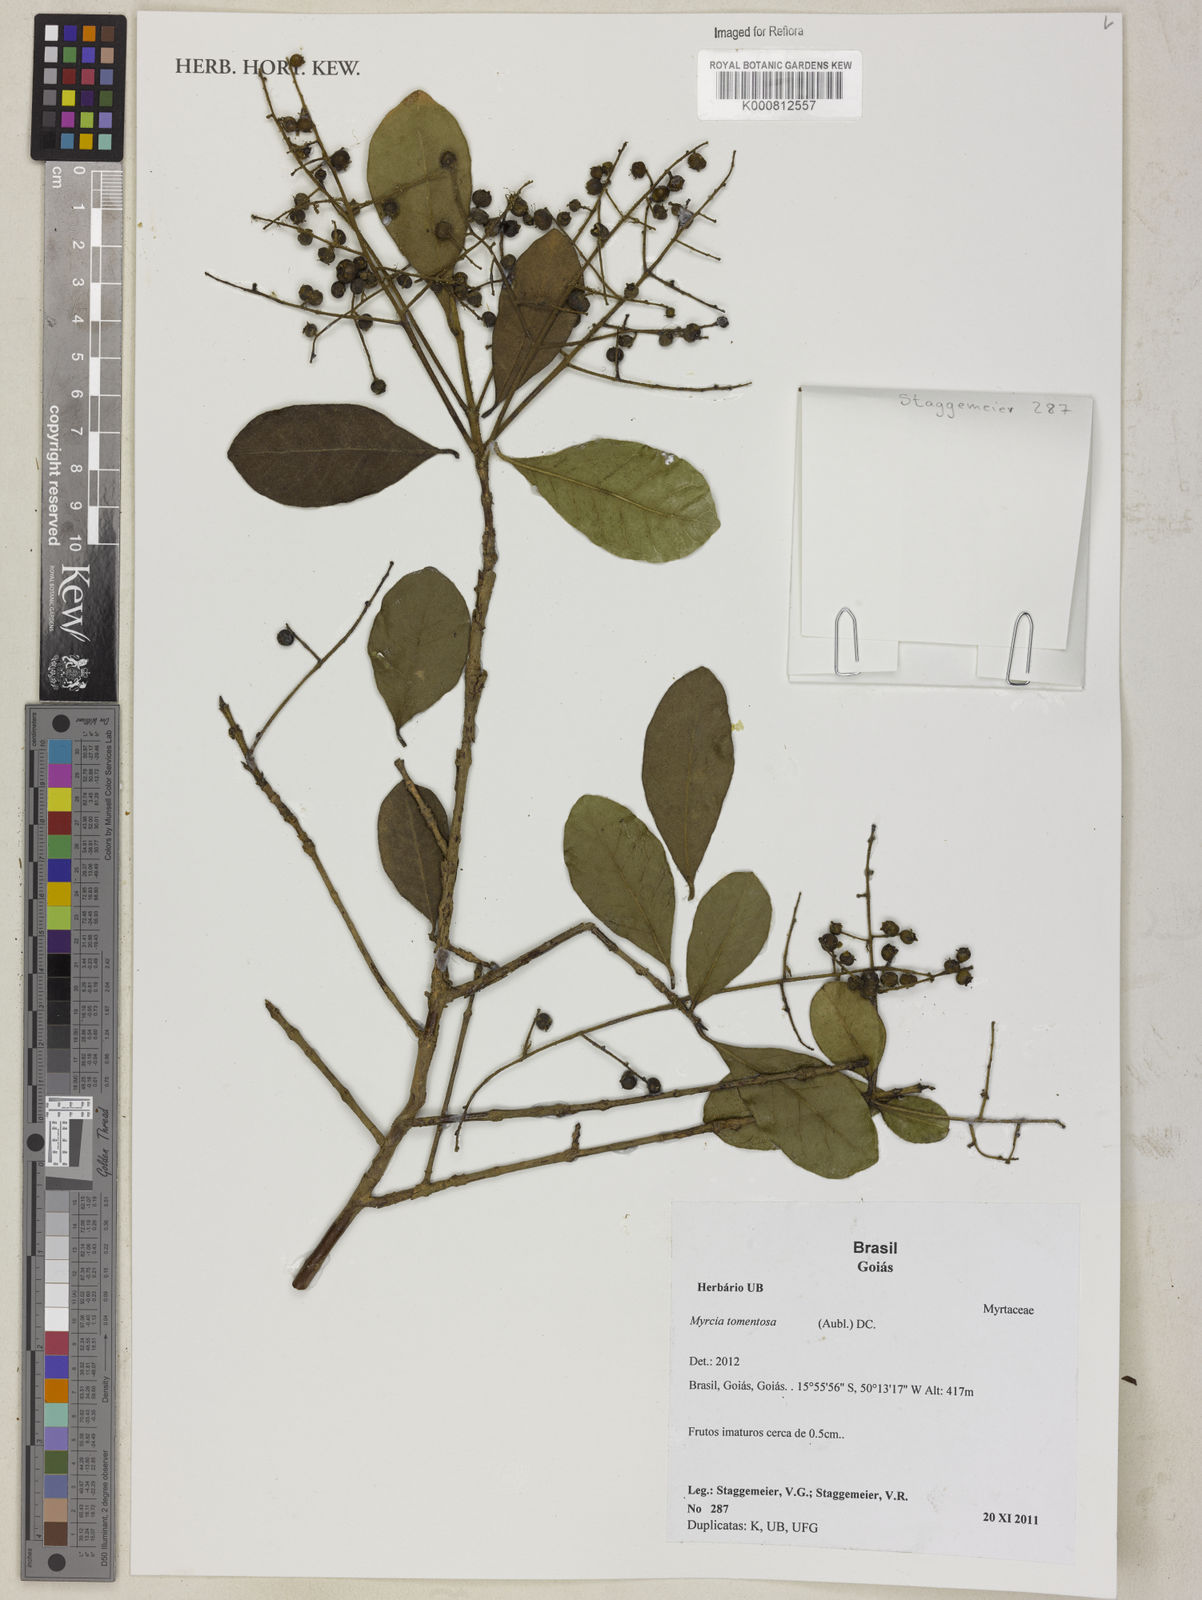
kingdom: Plantae
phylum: Tracheophyta
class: Magnoliopsida
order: Myrtales
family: Myrtaceae
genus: Myrcia
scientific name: Myrcia tomentosa
